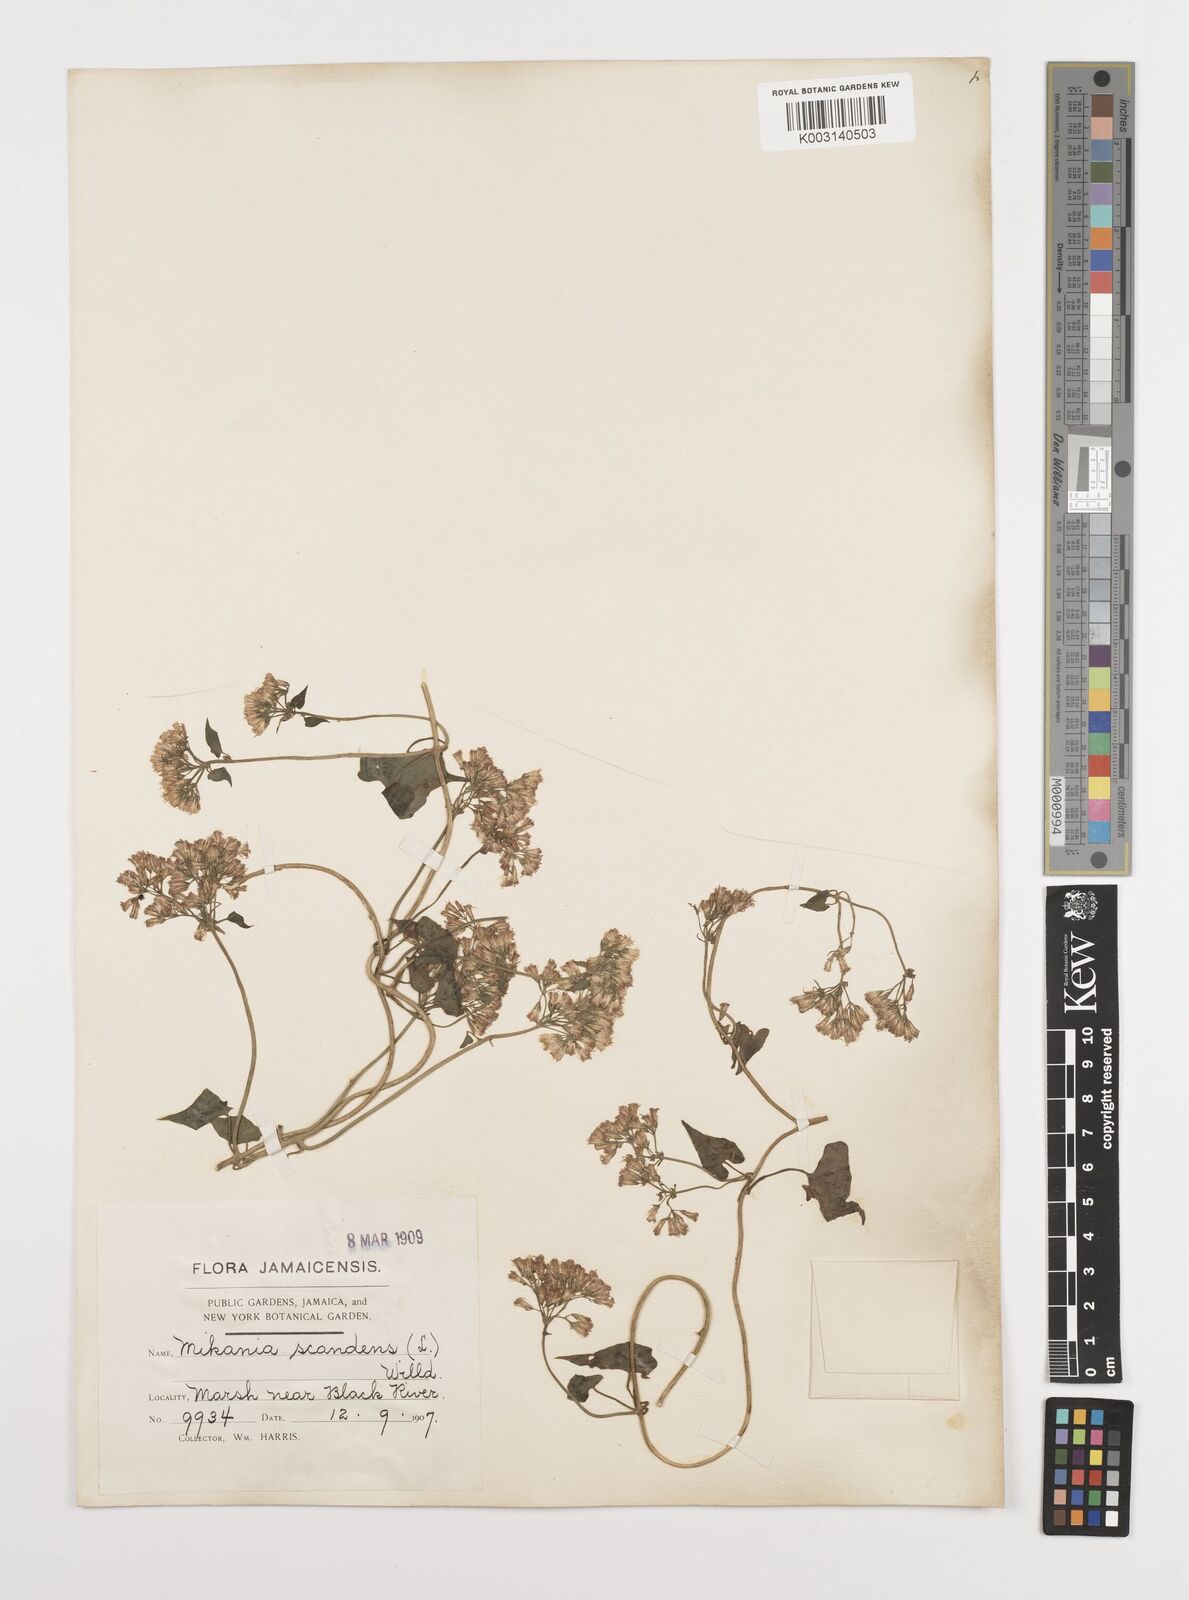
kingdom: Plantae
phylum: Tracheophyta
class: Magnoliopsida
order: Asterales
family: Asteraceae
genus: Mikania
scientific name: Mikania micrantha
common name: Mile-a-minute
